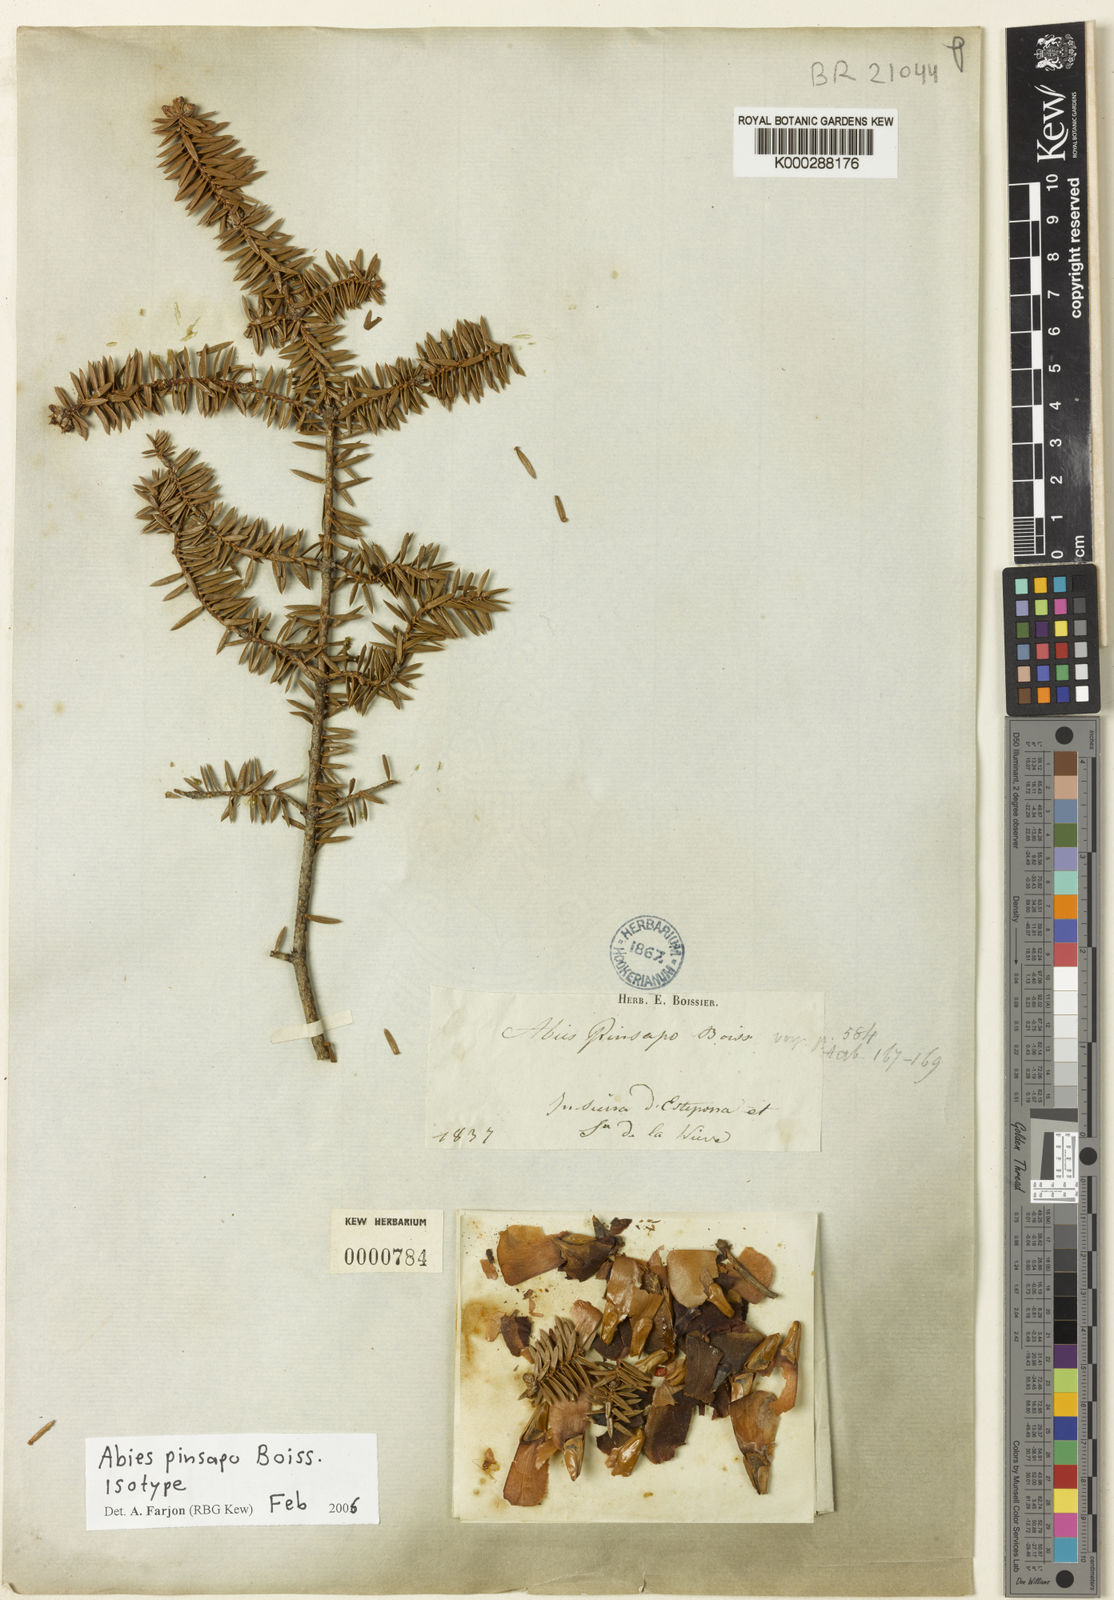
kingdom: Plantae
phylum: Tracheophyta
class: Pinopsida
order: Pinales
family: Pinaceae
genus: Abies
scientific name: Abies pinsapo
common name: Spanish fir
